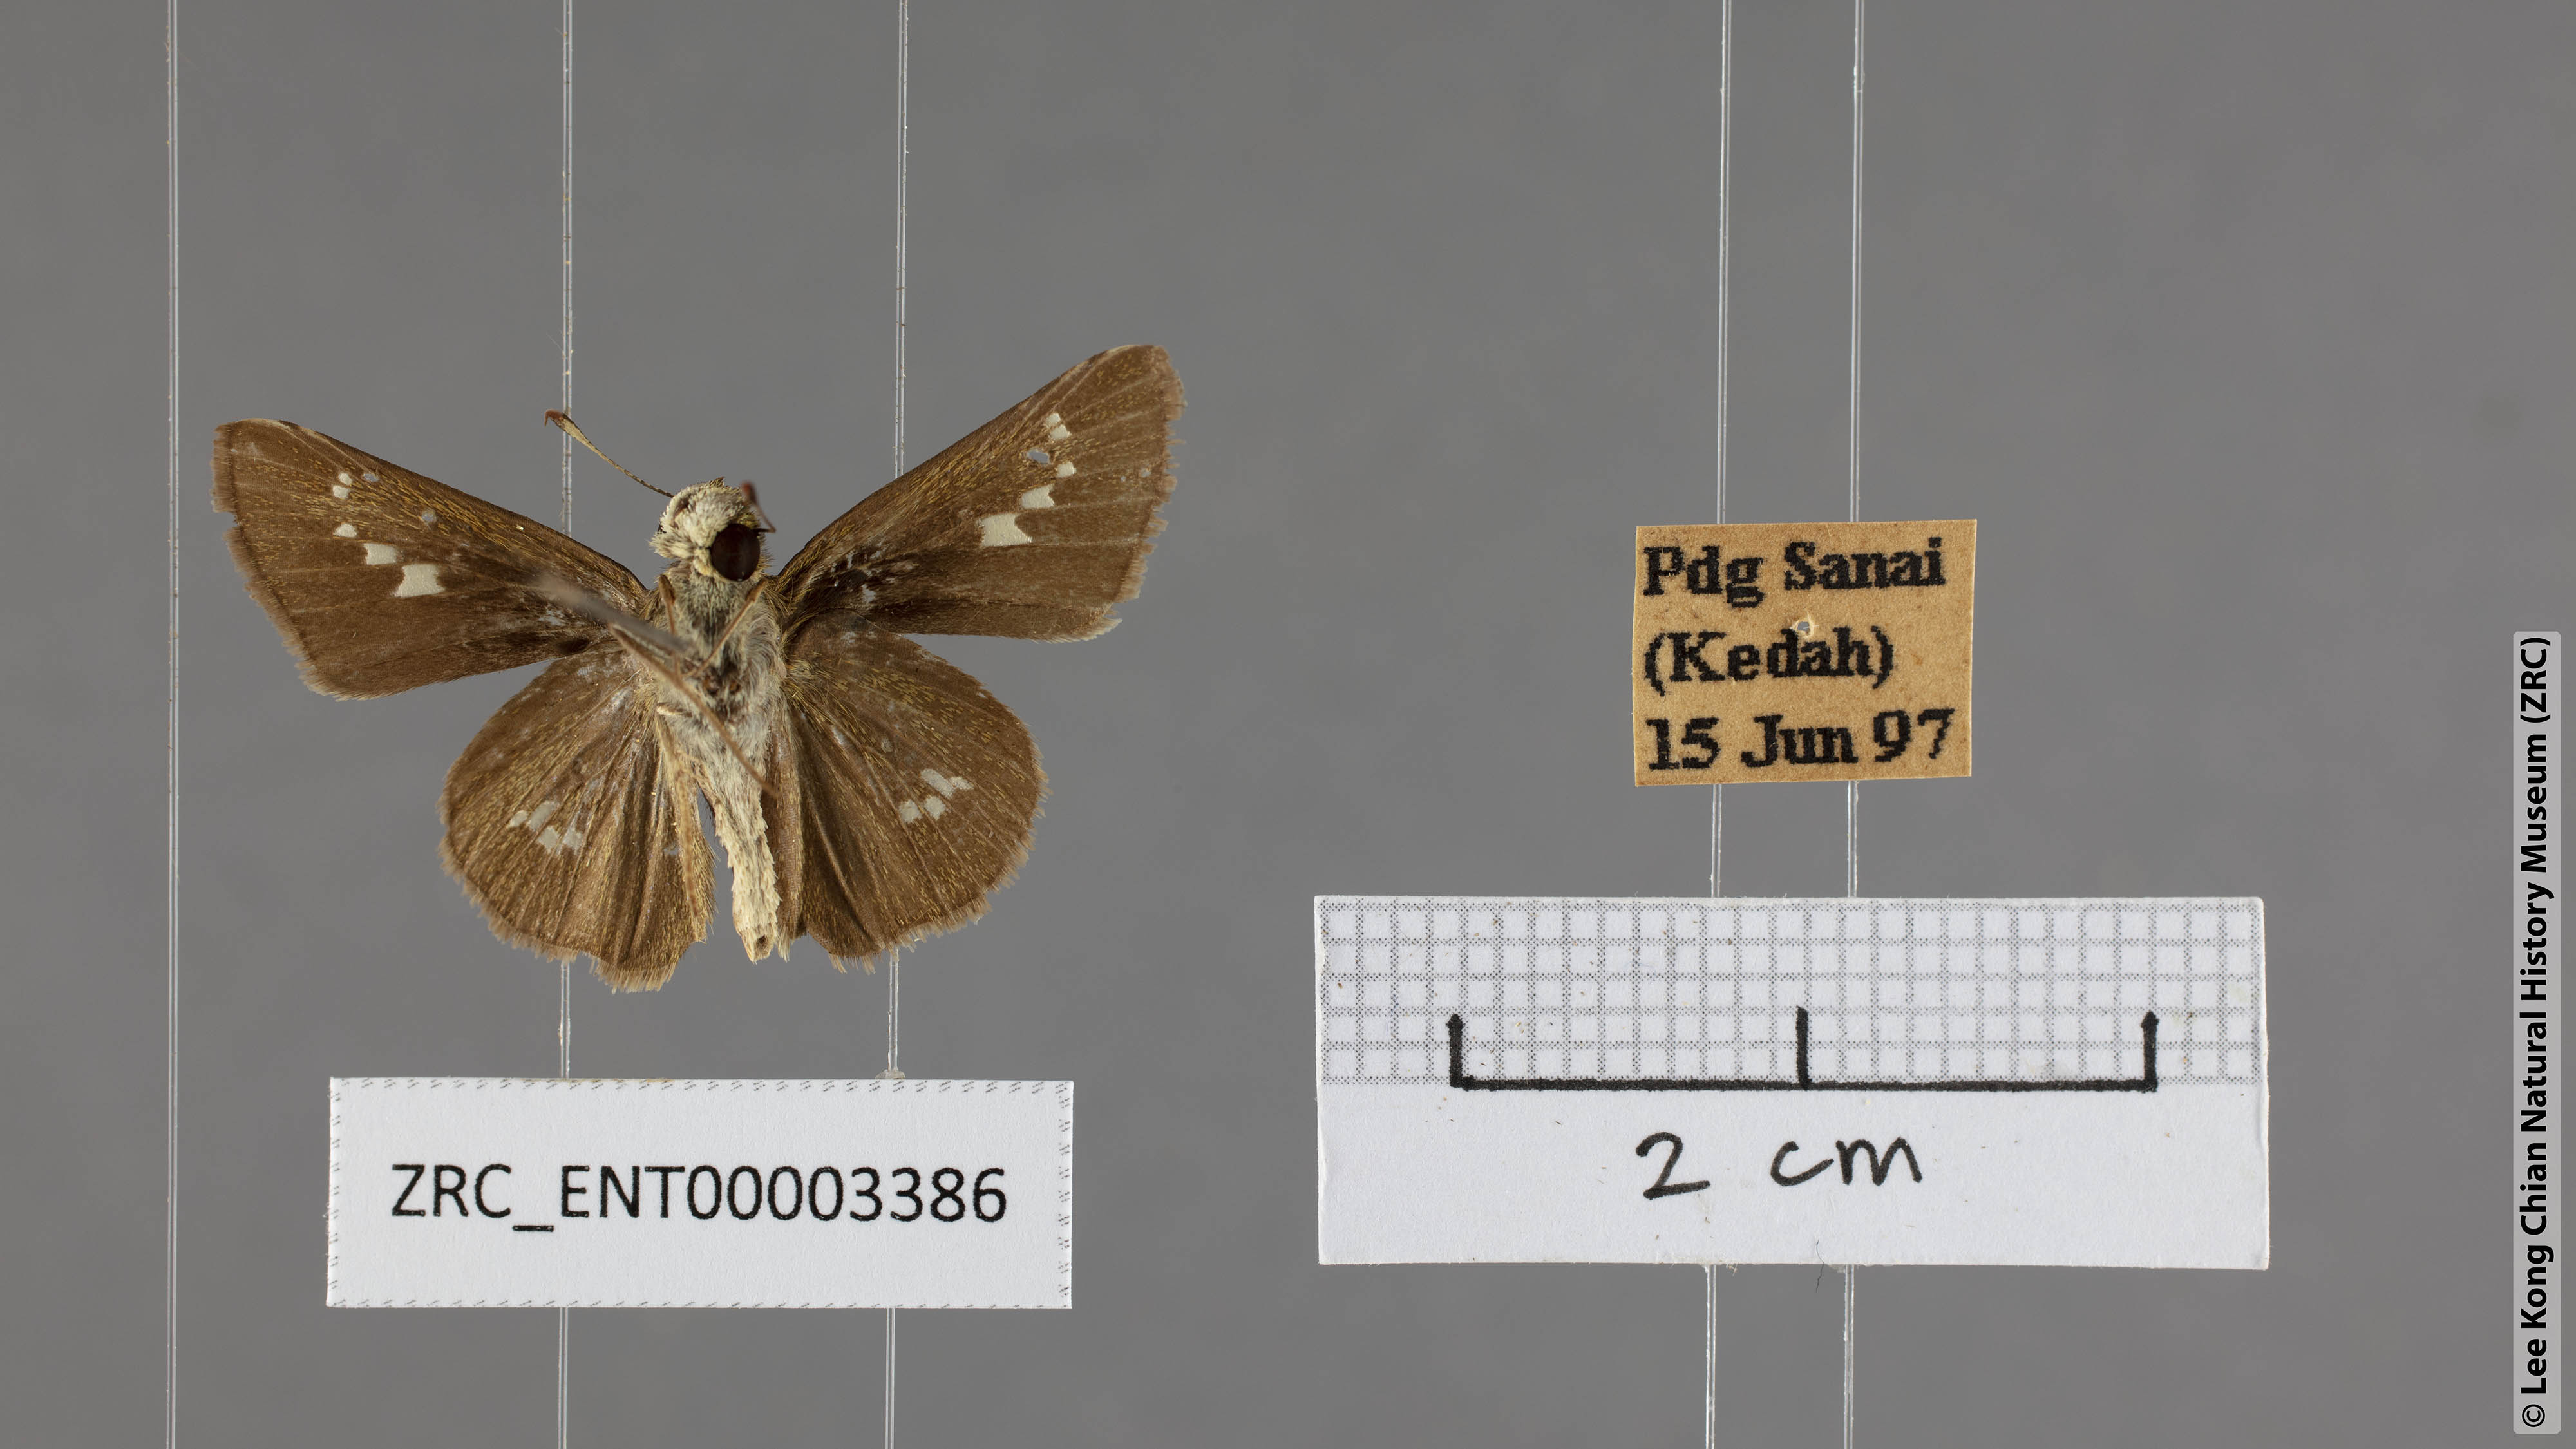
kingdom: Animalia
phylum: Arthropoda
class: Insecta
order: Lepidoptera
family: Hesperiidae
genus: Parnara
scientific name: Parnara apostata
